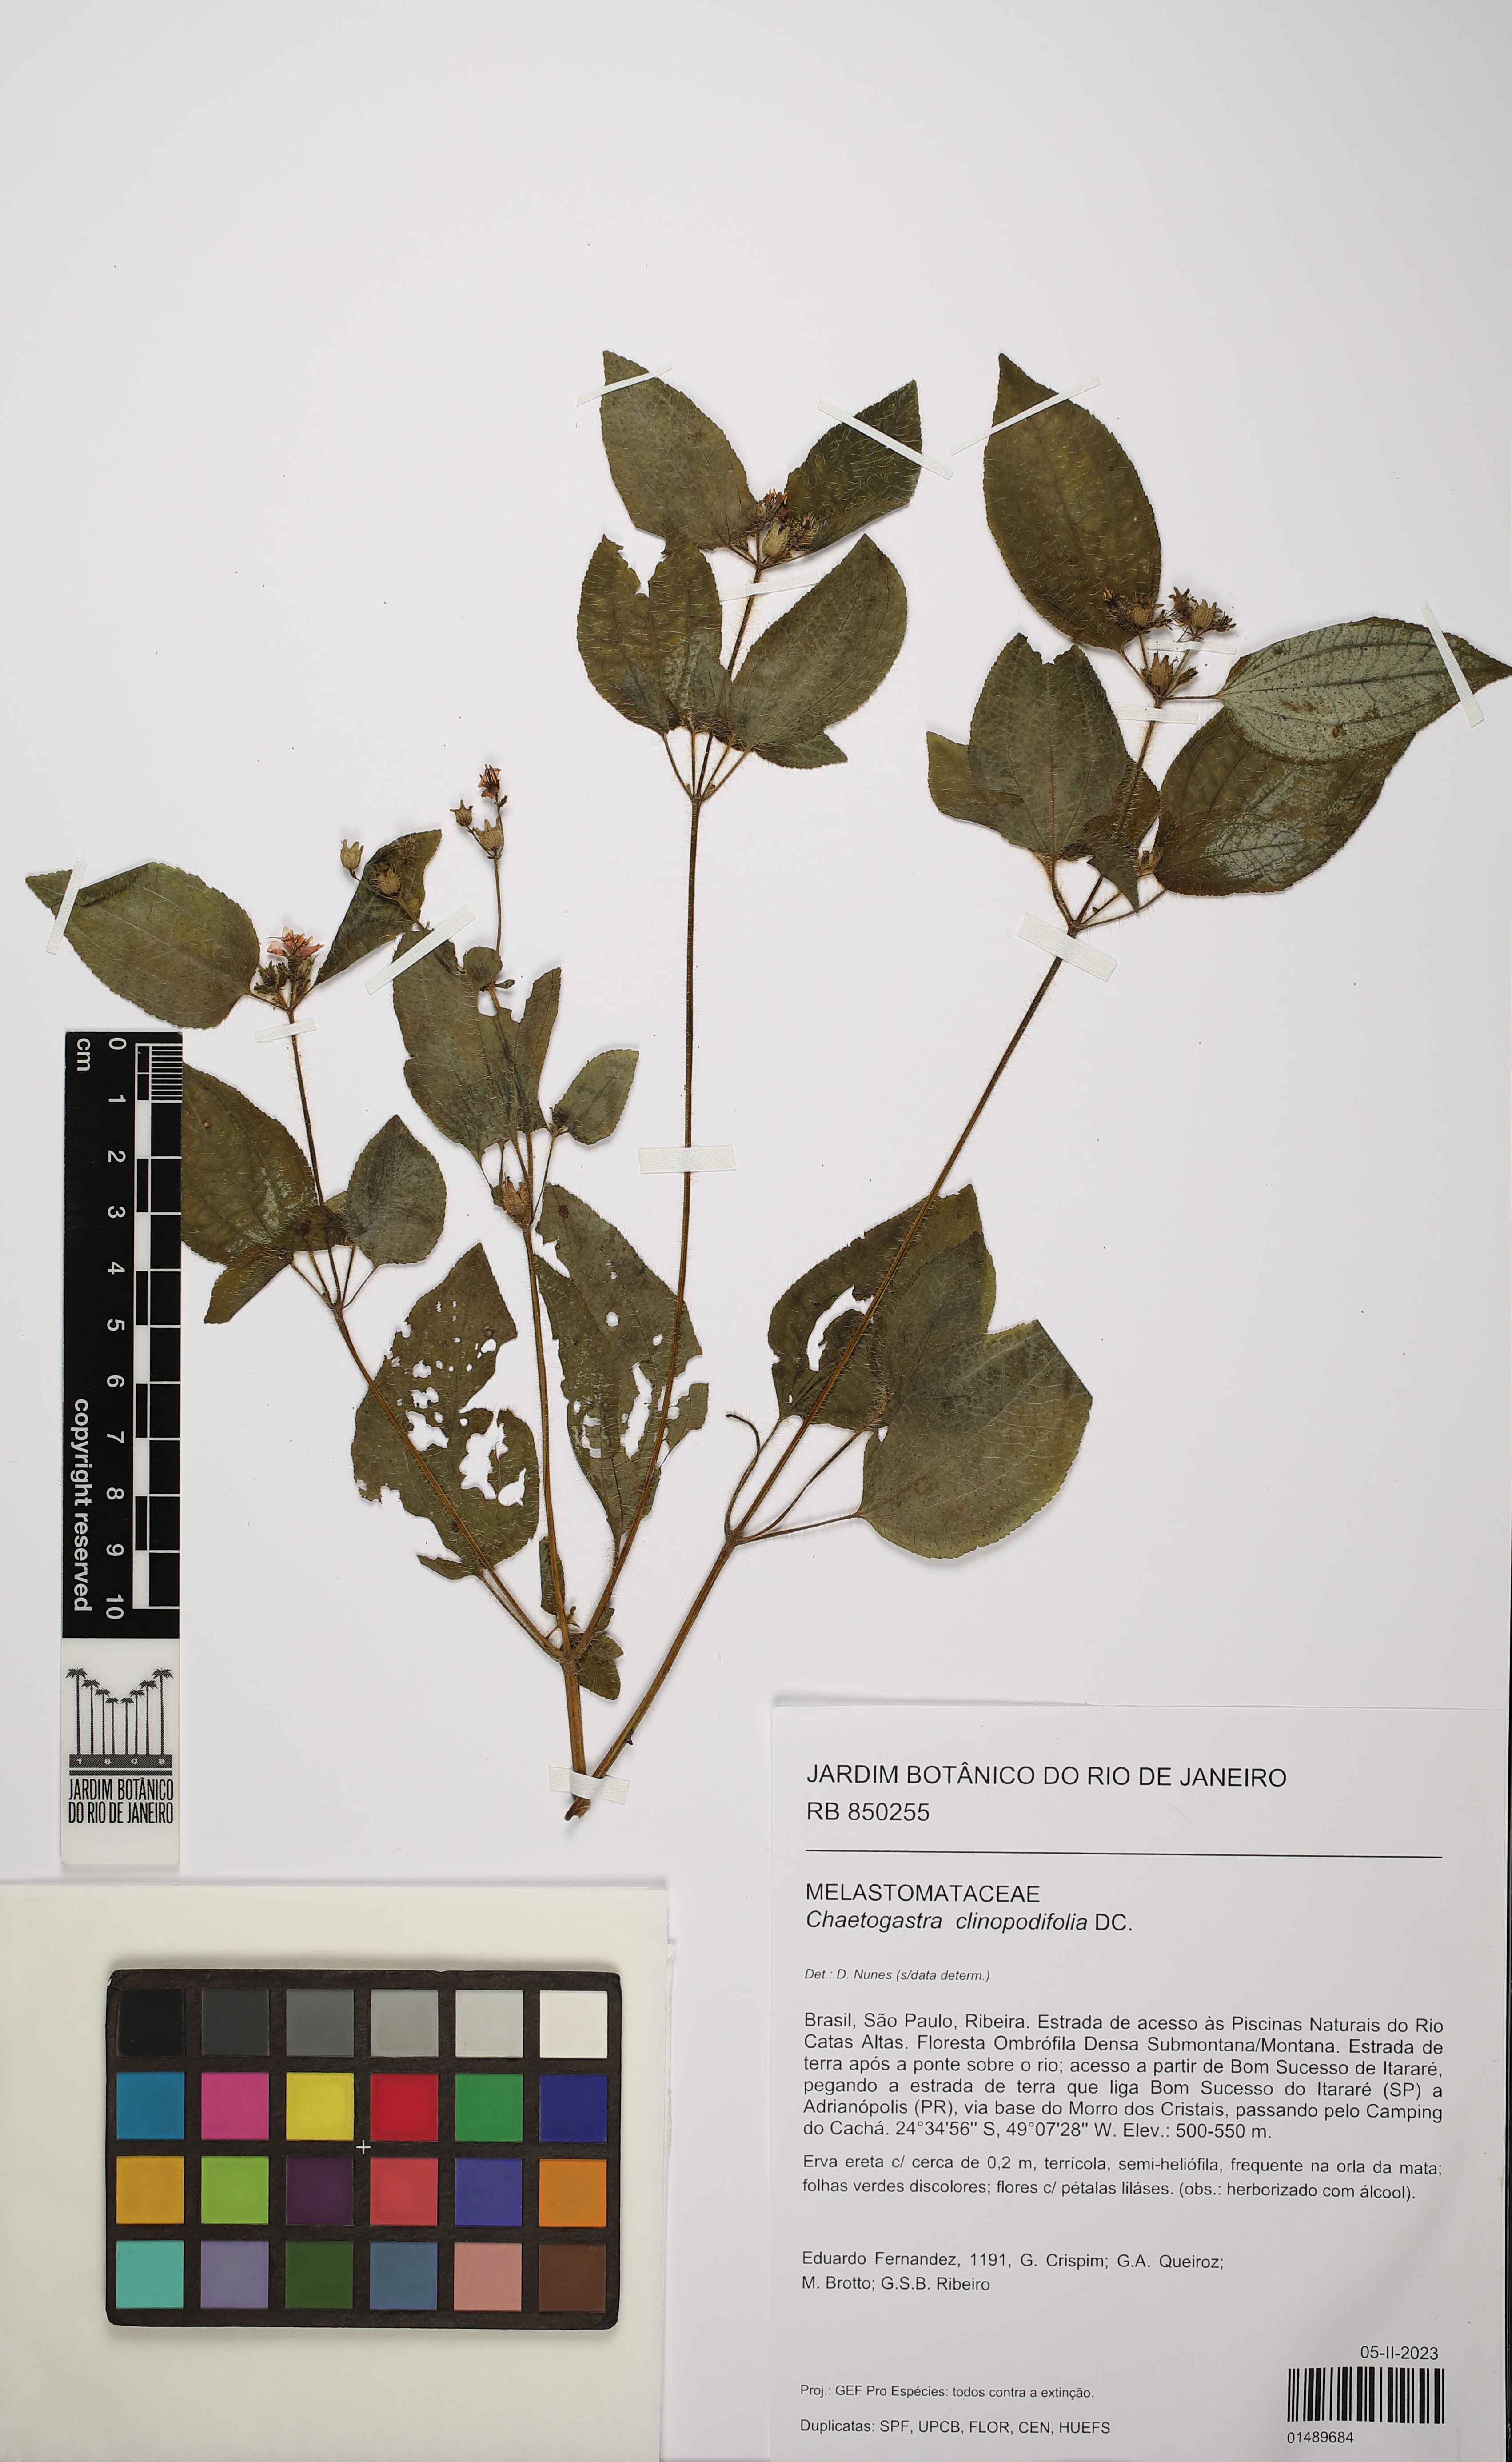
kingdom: Plantae
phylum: Tracheophyta
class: Magnoliopsida
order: Myrtales
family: Melastomataceae
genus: Chaetogastra
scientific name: Chaetogastra clinopodifolia
